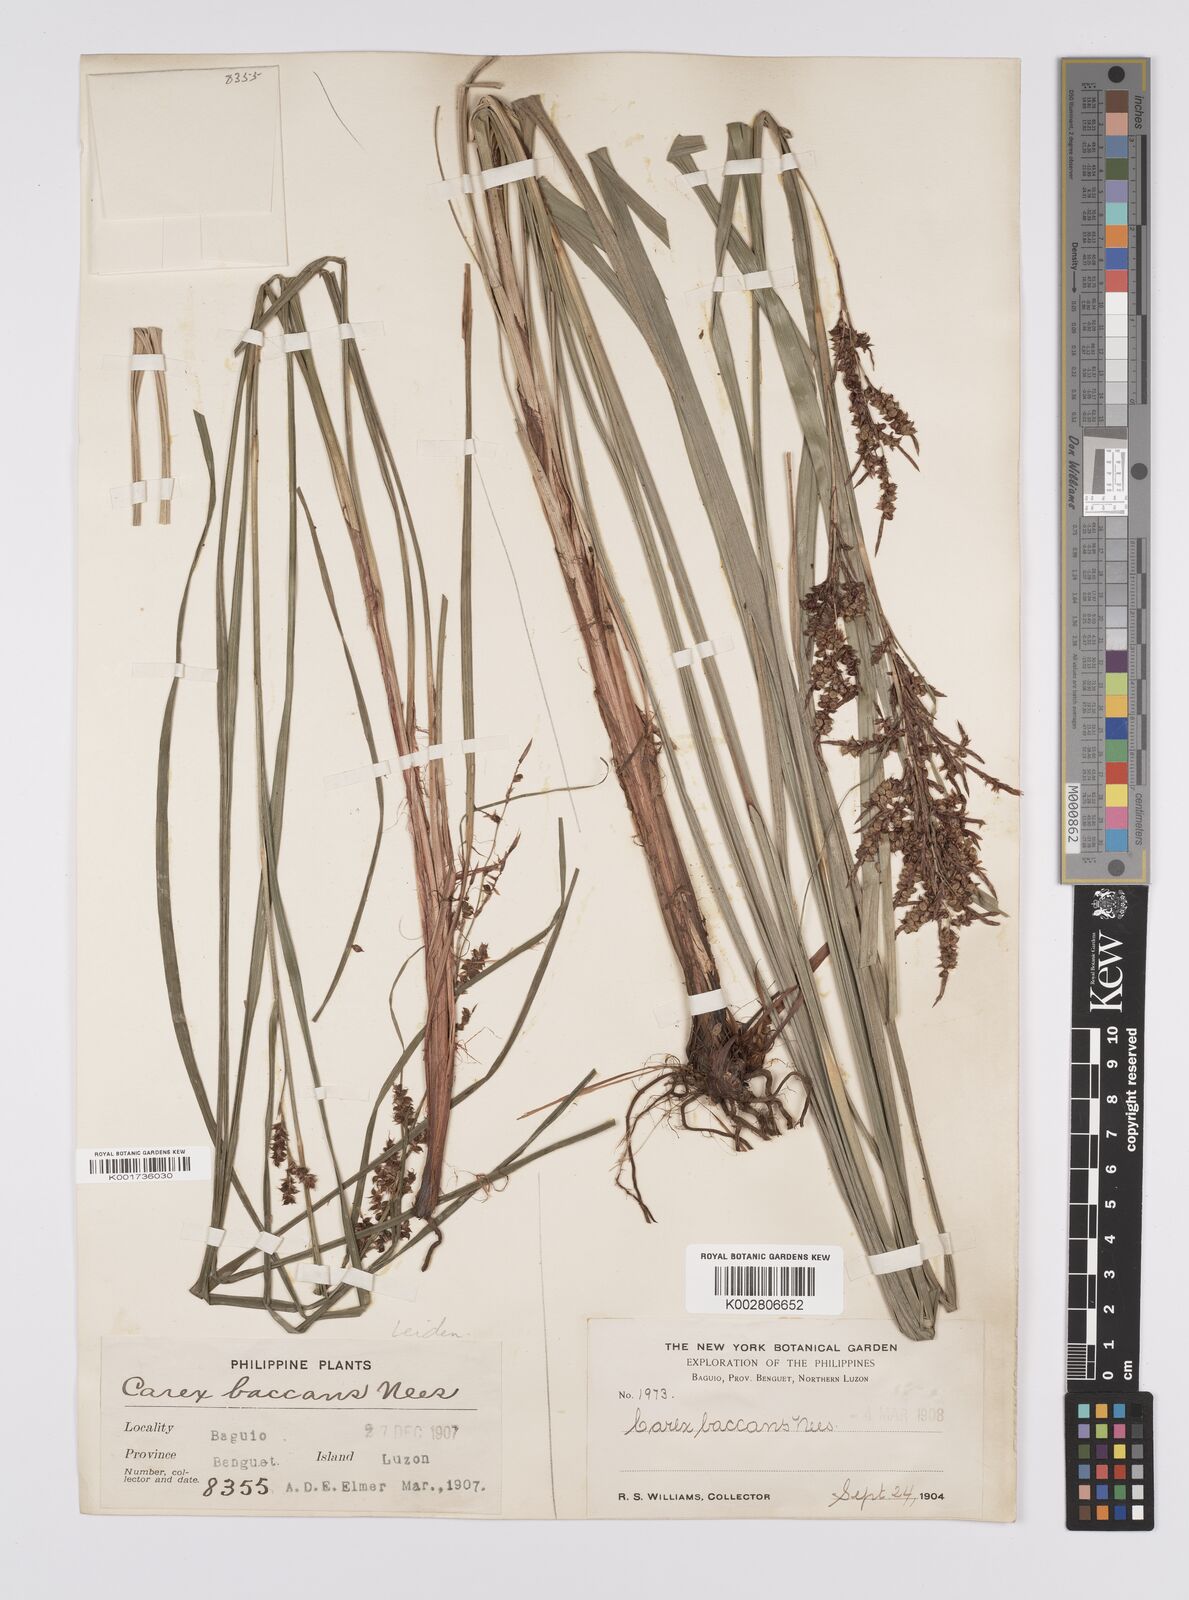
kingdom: Plantae
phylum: Tracheophyta
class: Liliopsida
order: Poales
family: Cyperaceae
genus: Carex
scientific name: Carex baccans
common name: Crimson seeded sedge
